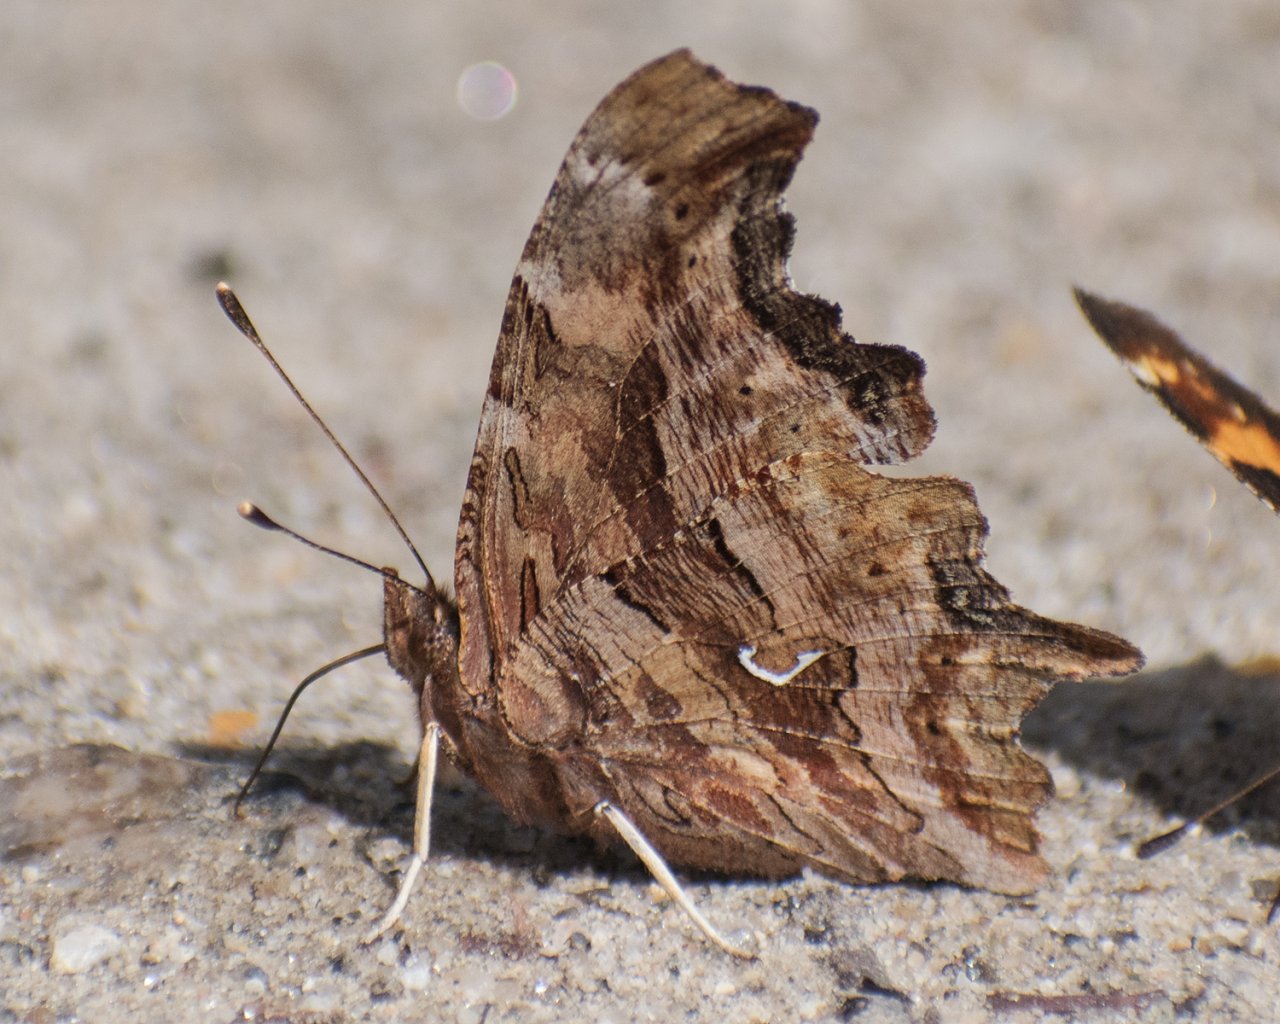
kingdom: Animalia
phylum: Arthropoda
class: Insecta
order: Lepidoptera
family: Nymphalidae
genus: Polygonia
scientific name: Polygonia satyrus
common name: Satyr Comma
